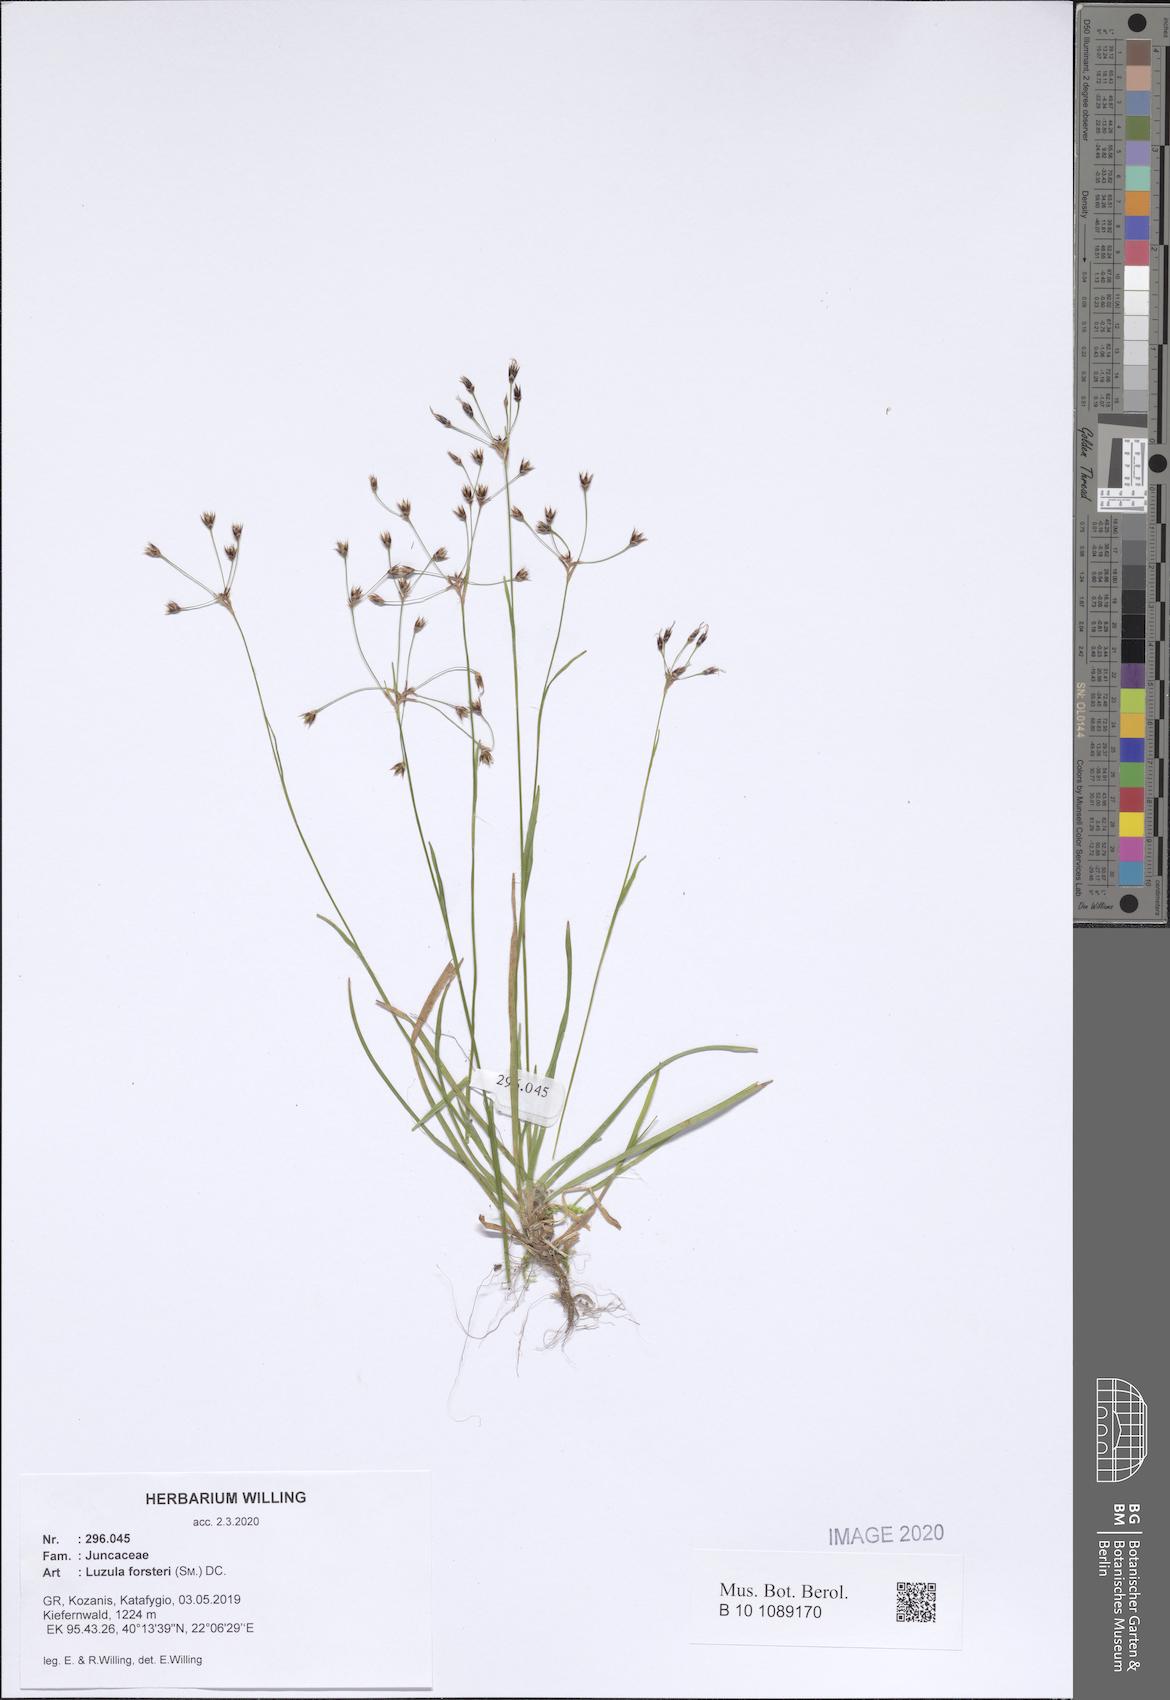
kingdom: Plantae
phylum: Tracheophyta
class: Liliopsida
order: Poales
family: Juncaceae
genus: Luzula
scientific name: Luzula forsteri
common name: Southern wood-rush
